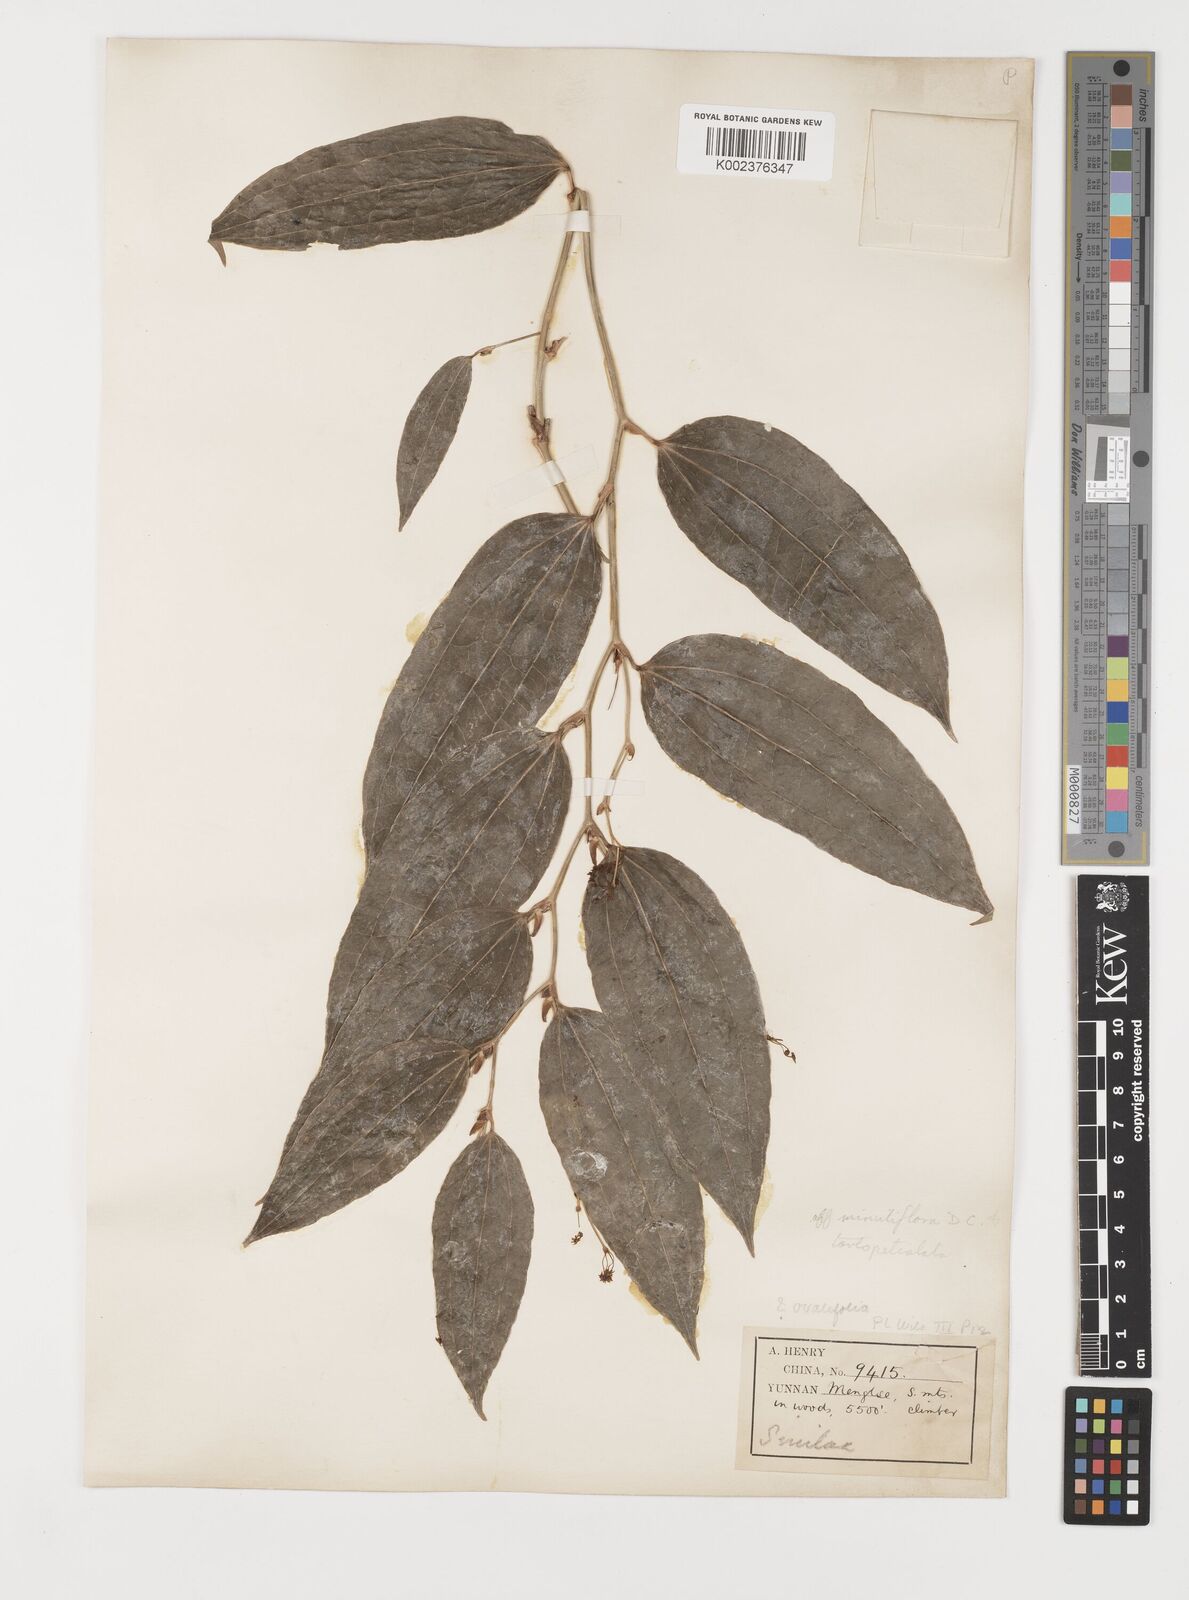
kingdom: Plantae
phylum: Tracheophyta
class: Liliopsida
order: Liliales
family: Smilacaceae
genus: Smilax
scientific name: Smilax aberrans
